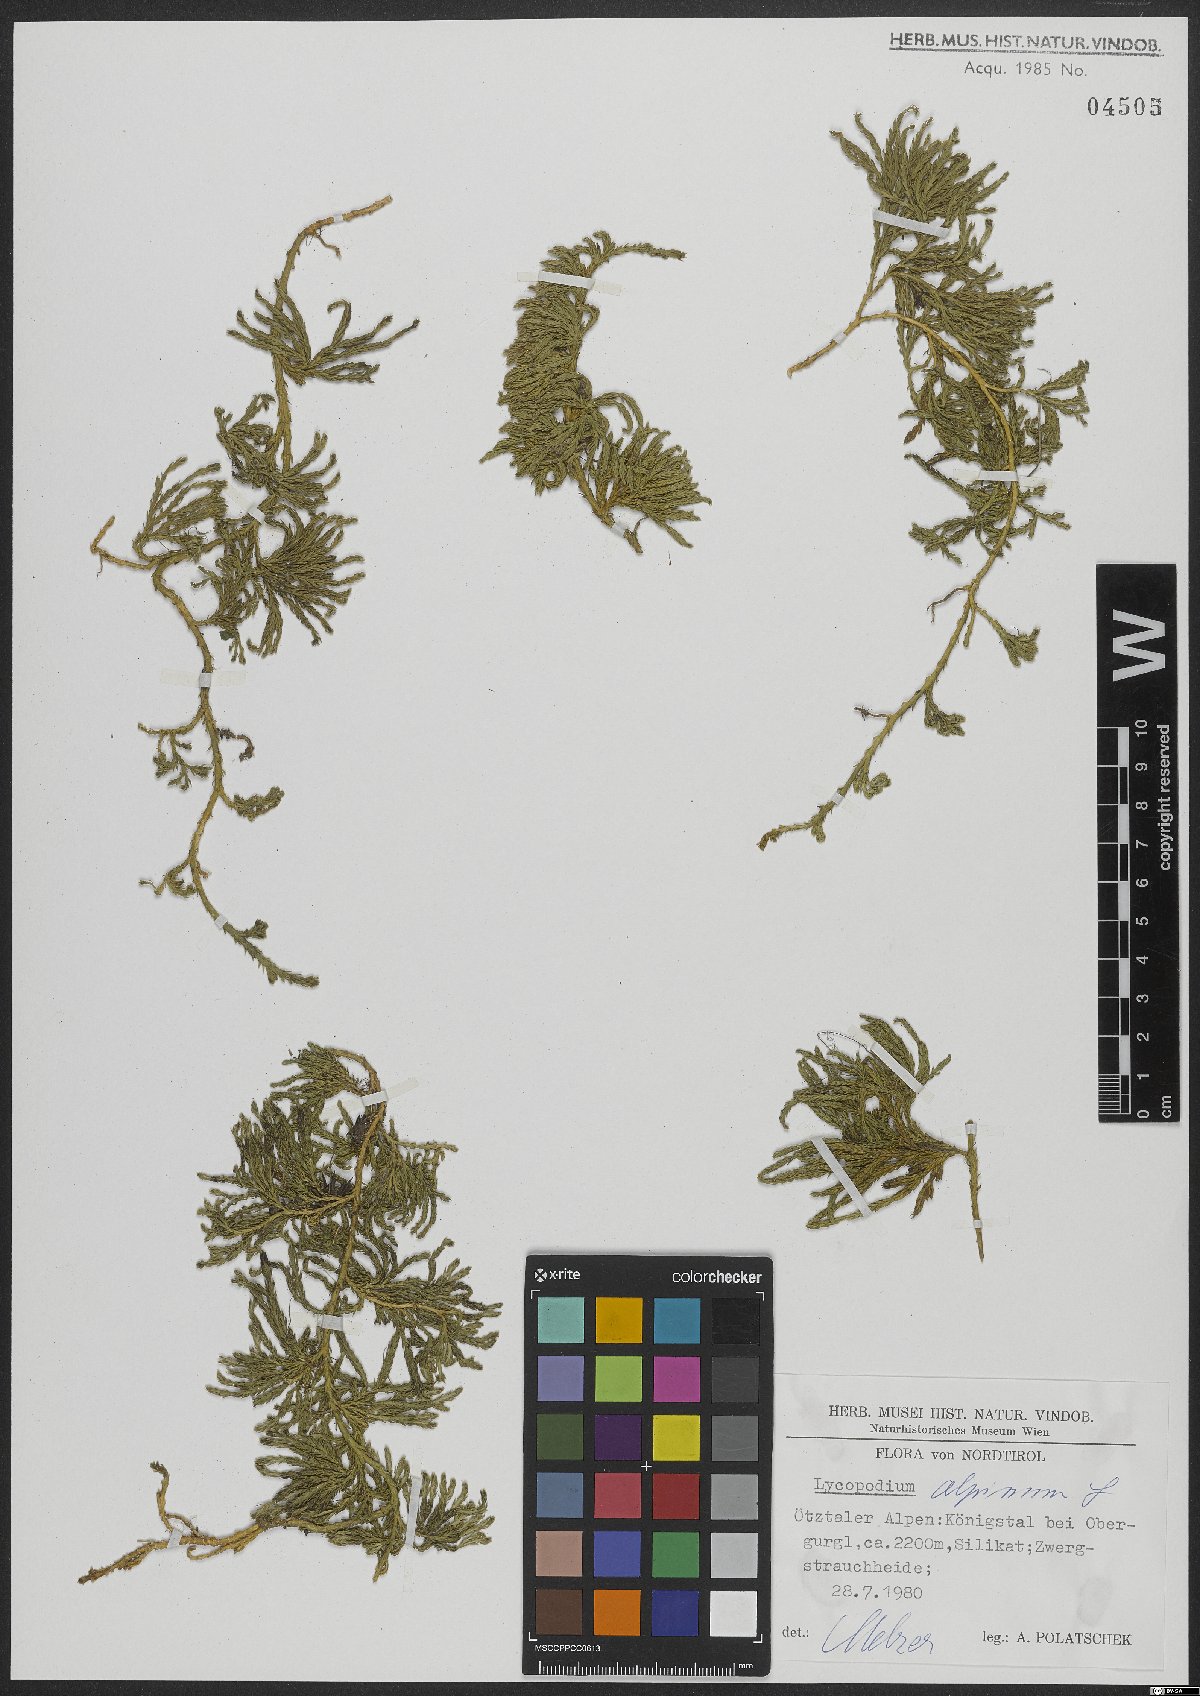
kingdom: Plantae
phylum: Tracheophyta
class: Lycopodiopsida
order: Lycopodiales
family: Lycopodiaceae
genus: Diphasiastrum
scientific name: Diphasiastrum alpinum
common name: Alpine clubmoss
